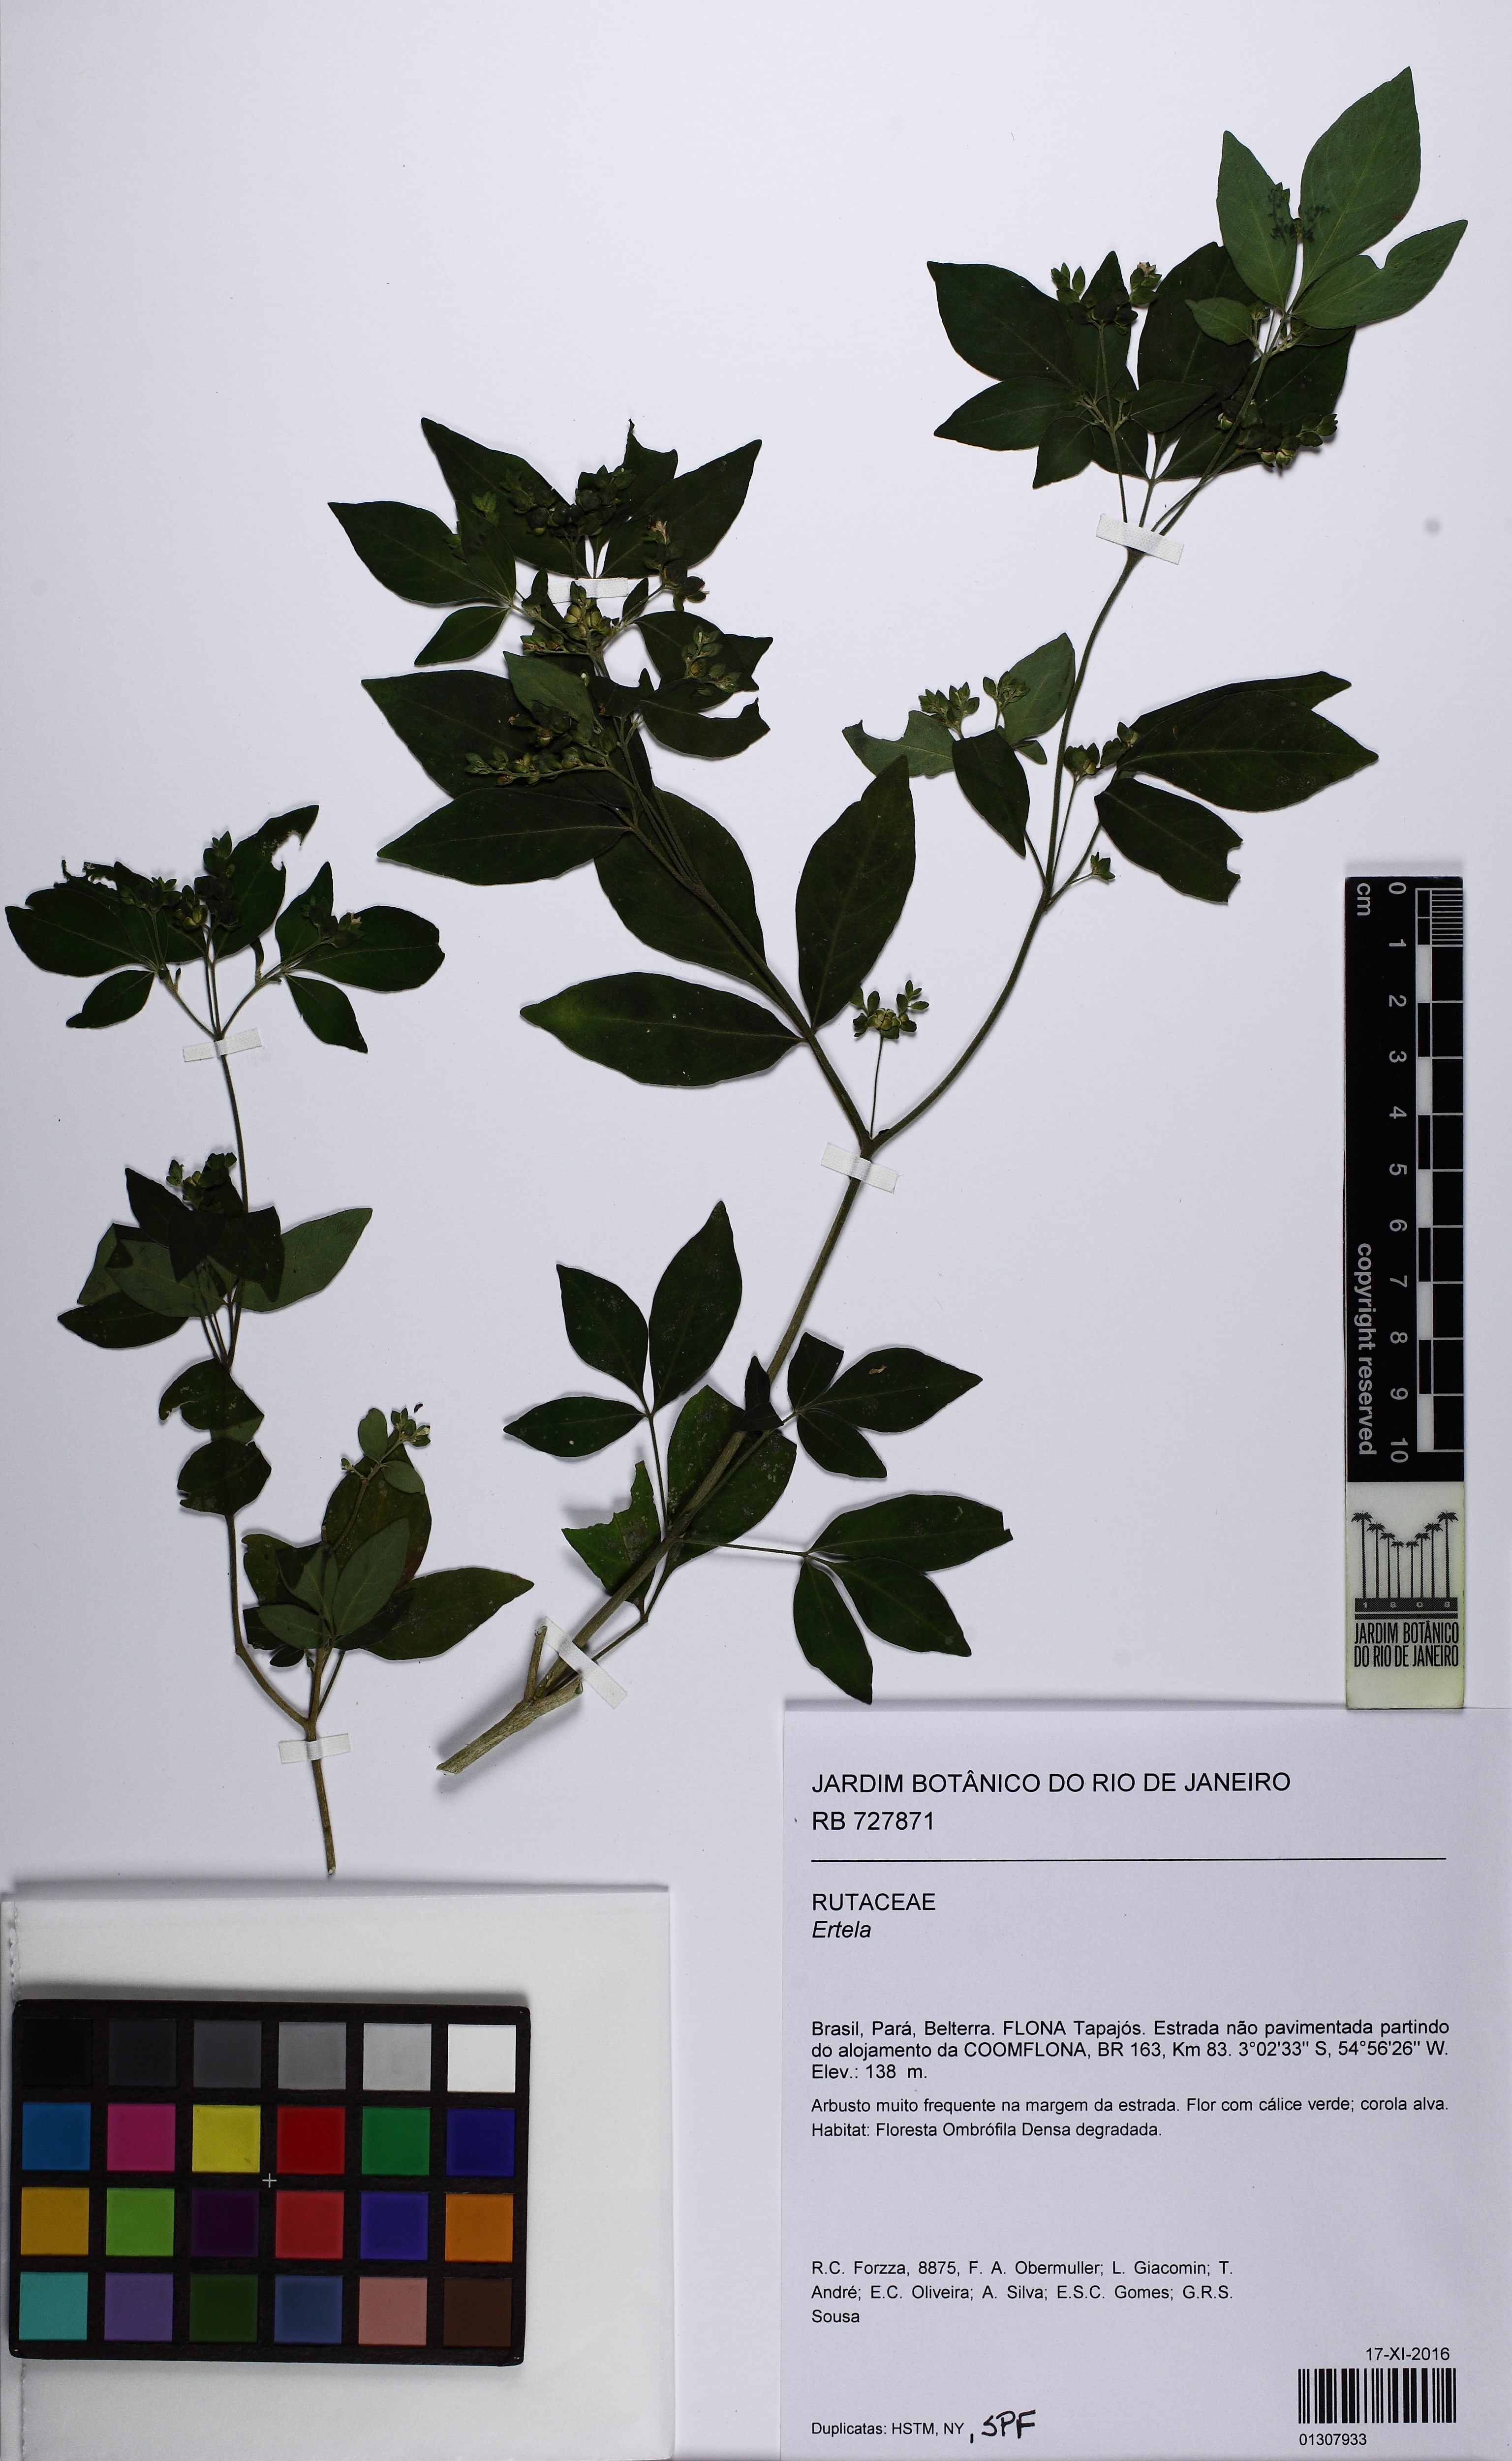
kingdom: Plantae
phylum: Tracheophyta
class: Magnoliopsida
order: Sapindales
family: Rutaceae
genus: Ertela
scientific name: Ertela
